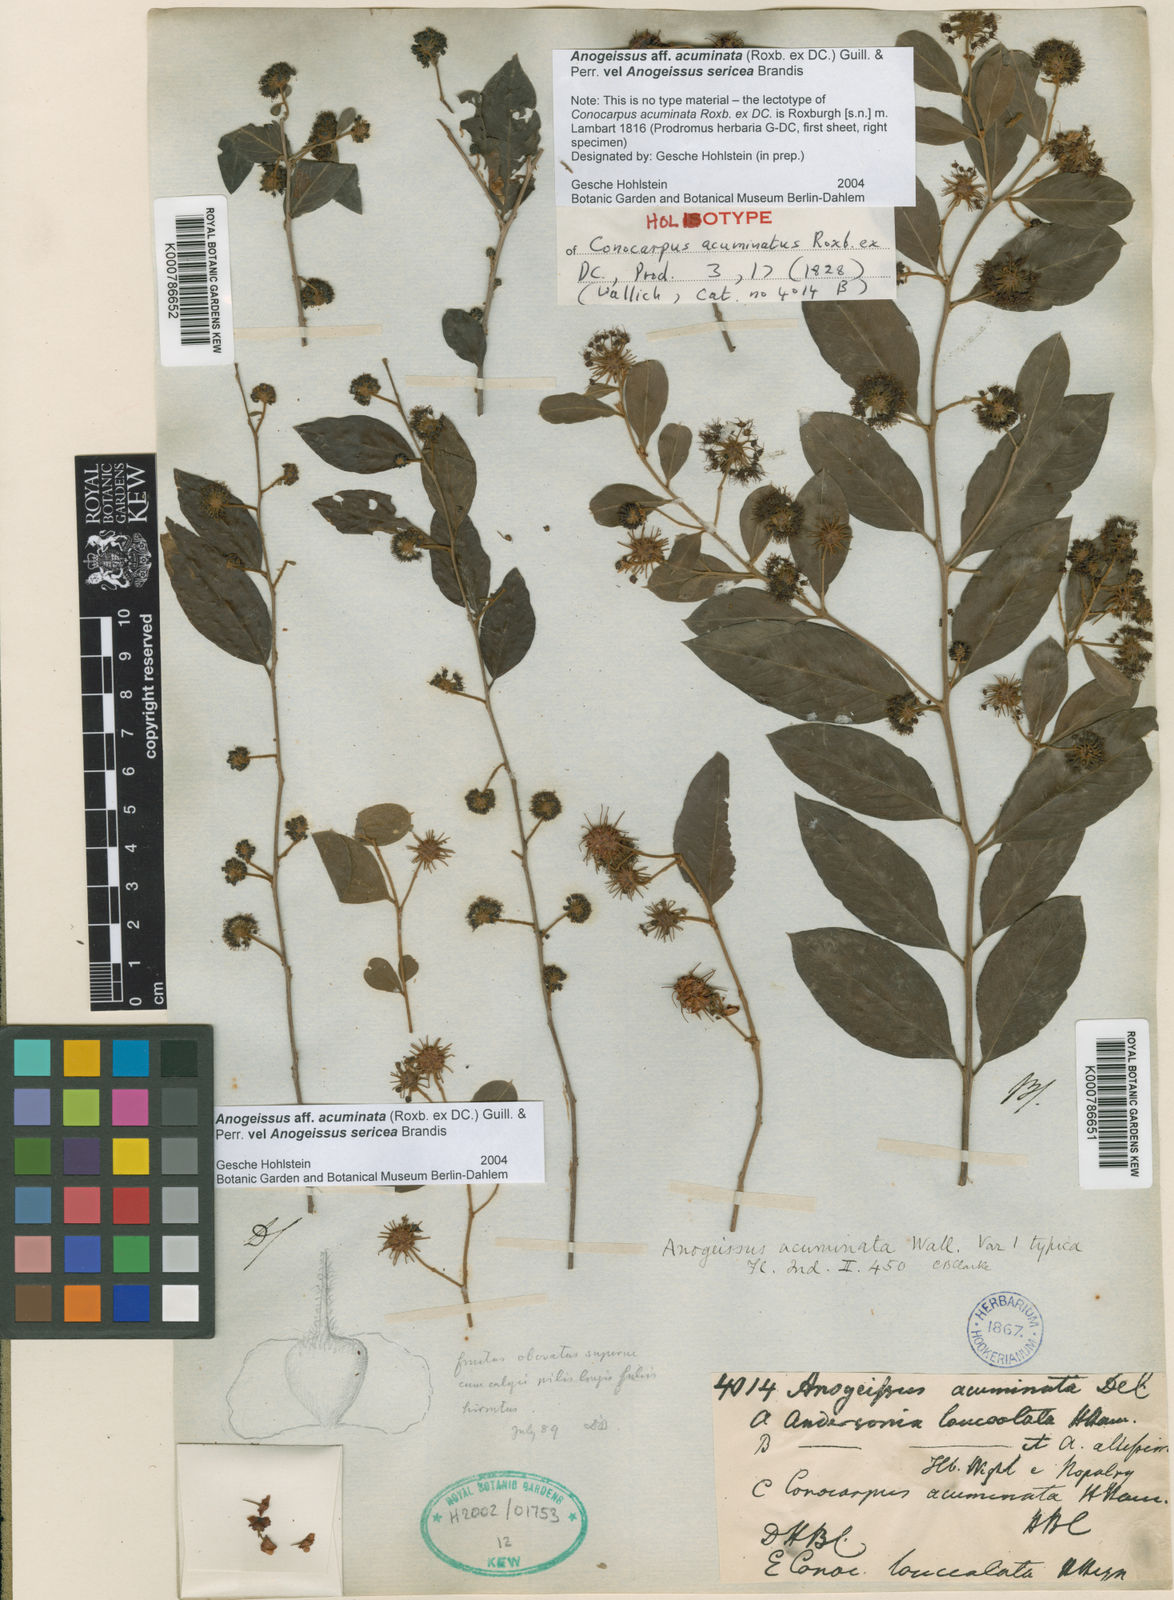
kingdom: Plantae
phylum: Tracheophyta
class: Magnoliopsida
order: Myrtales
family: Combretaceae
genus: Terminalia
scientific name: Terminalia phillyreifolia
